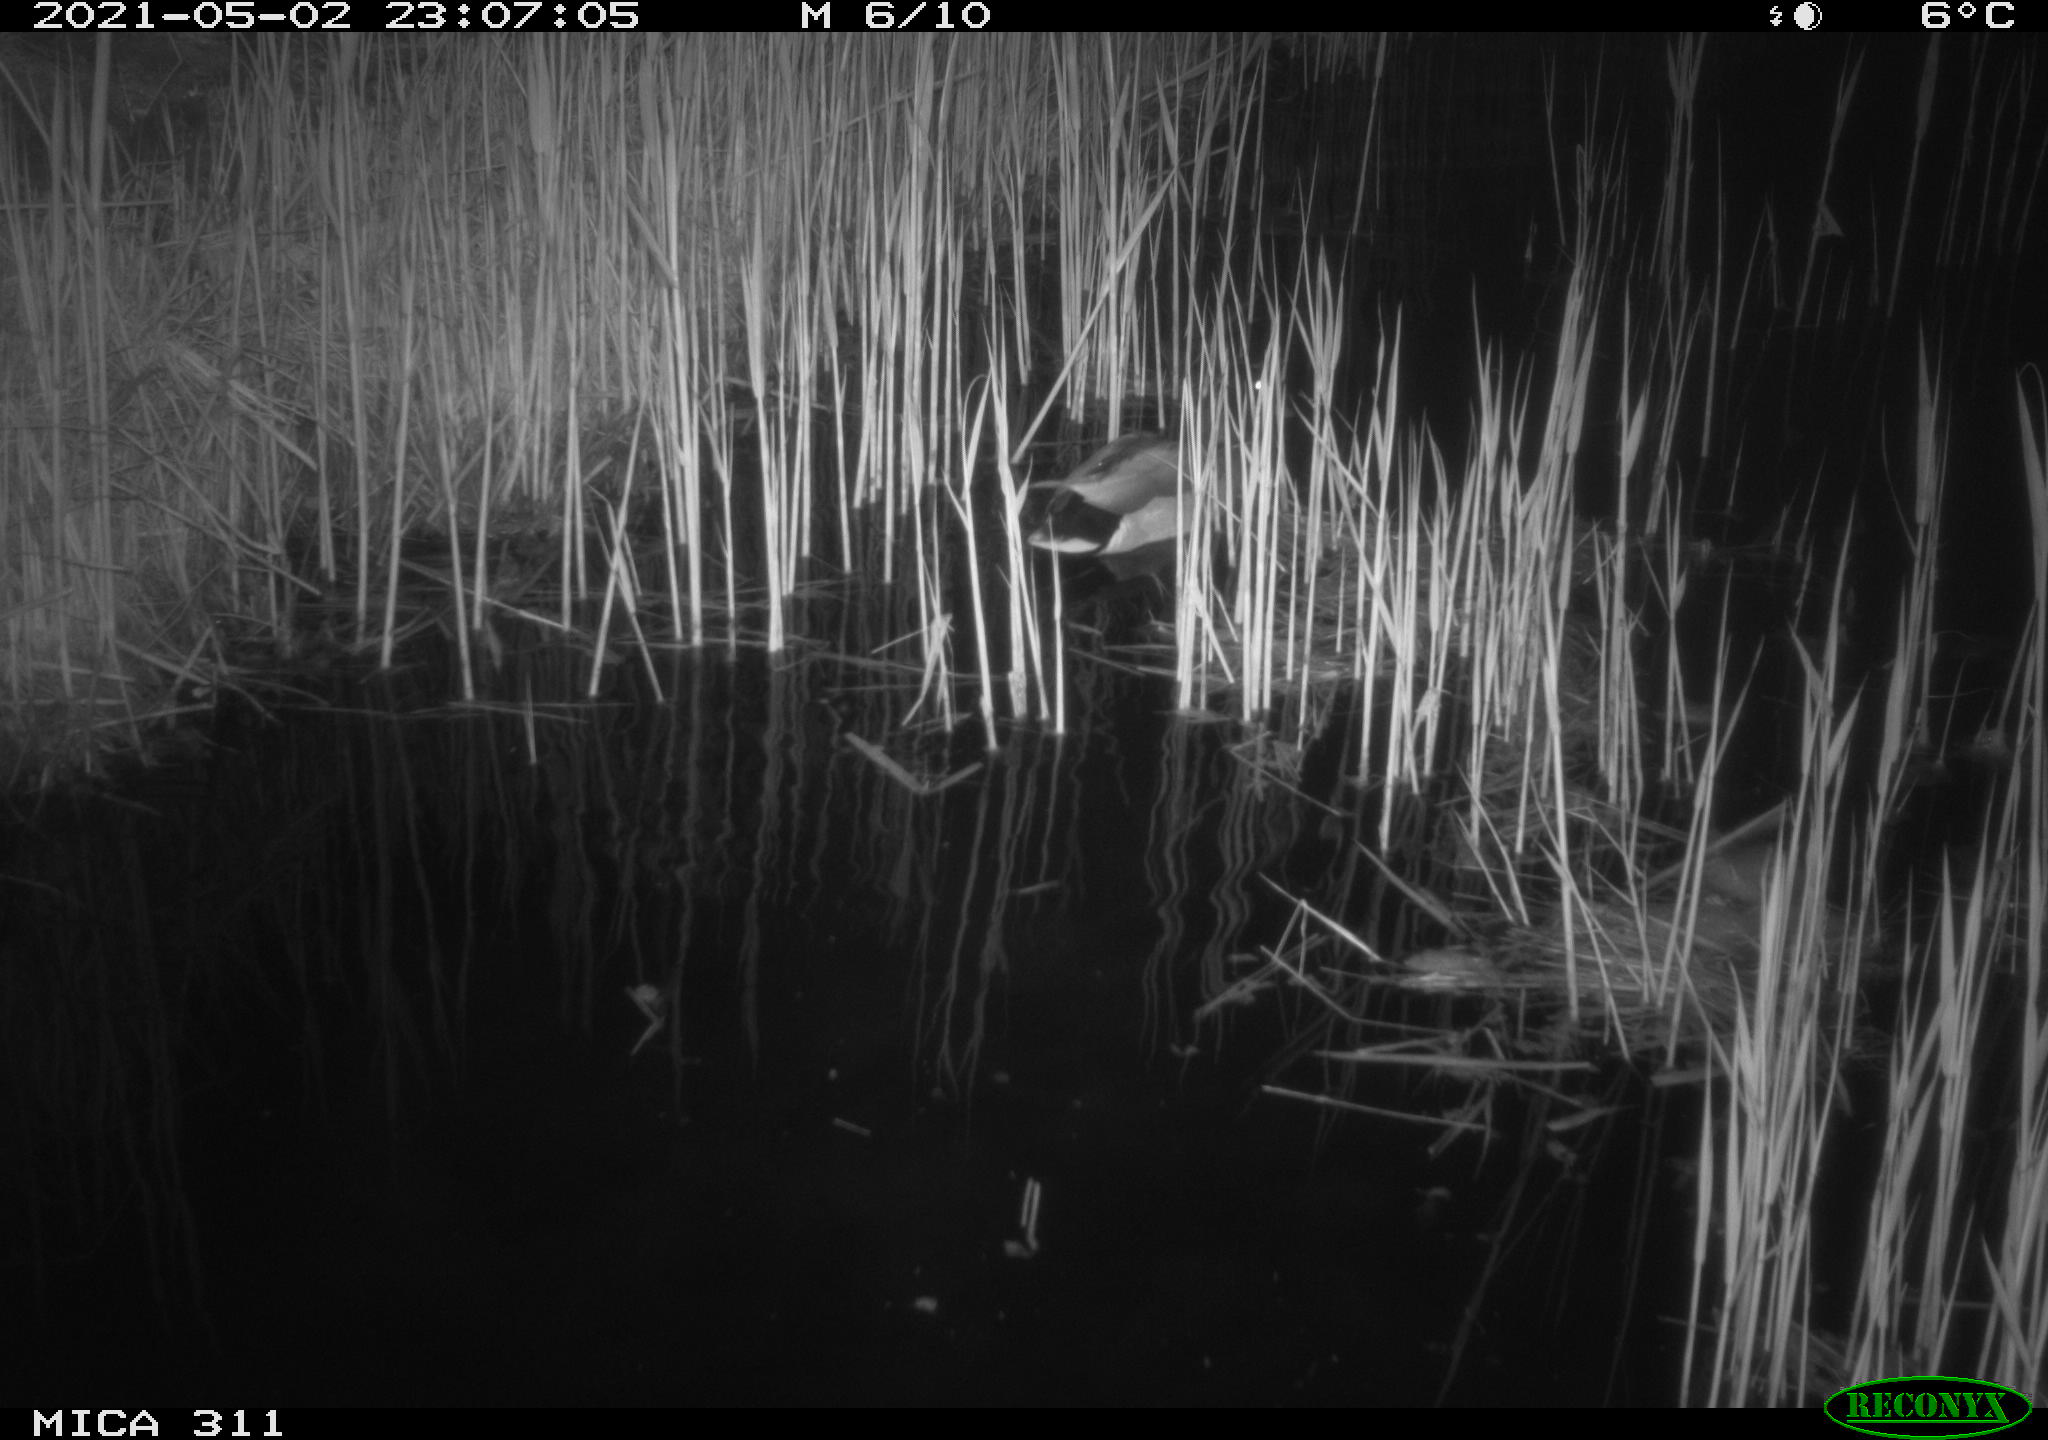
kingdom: Animalia
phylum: Chordata
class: Aves
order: Anseriformes
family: Anatidae
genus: Anas
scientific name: Anas platyrhynchos
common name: Mallard
